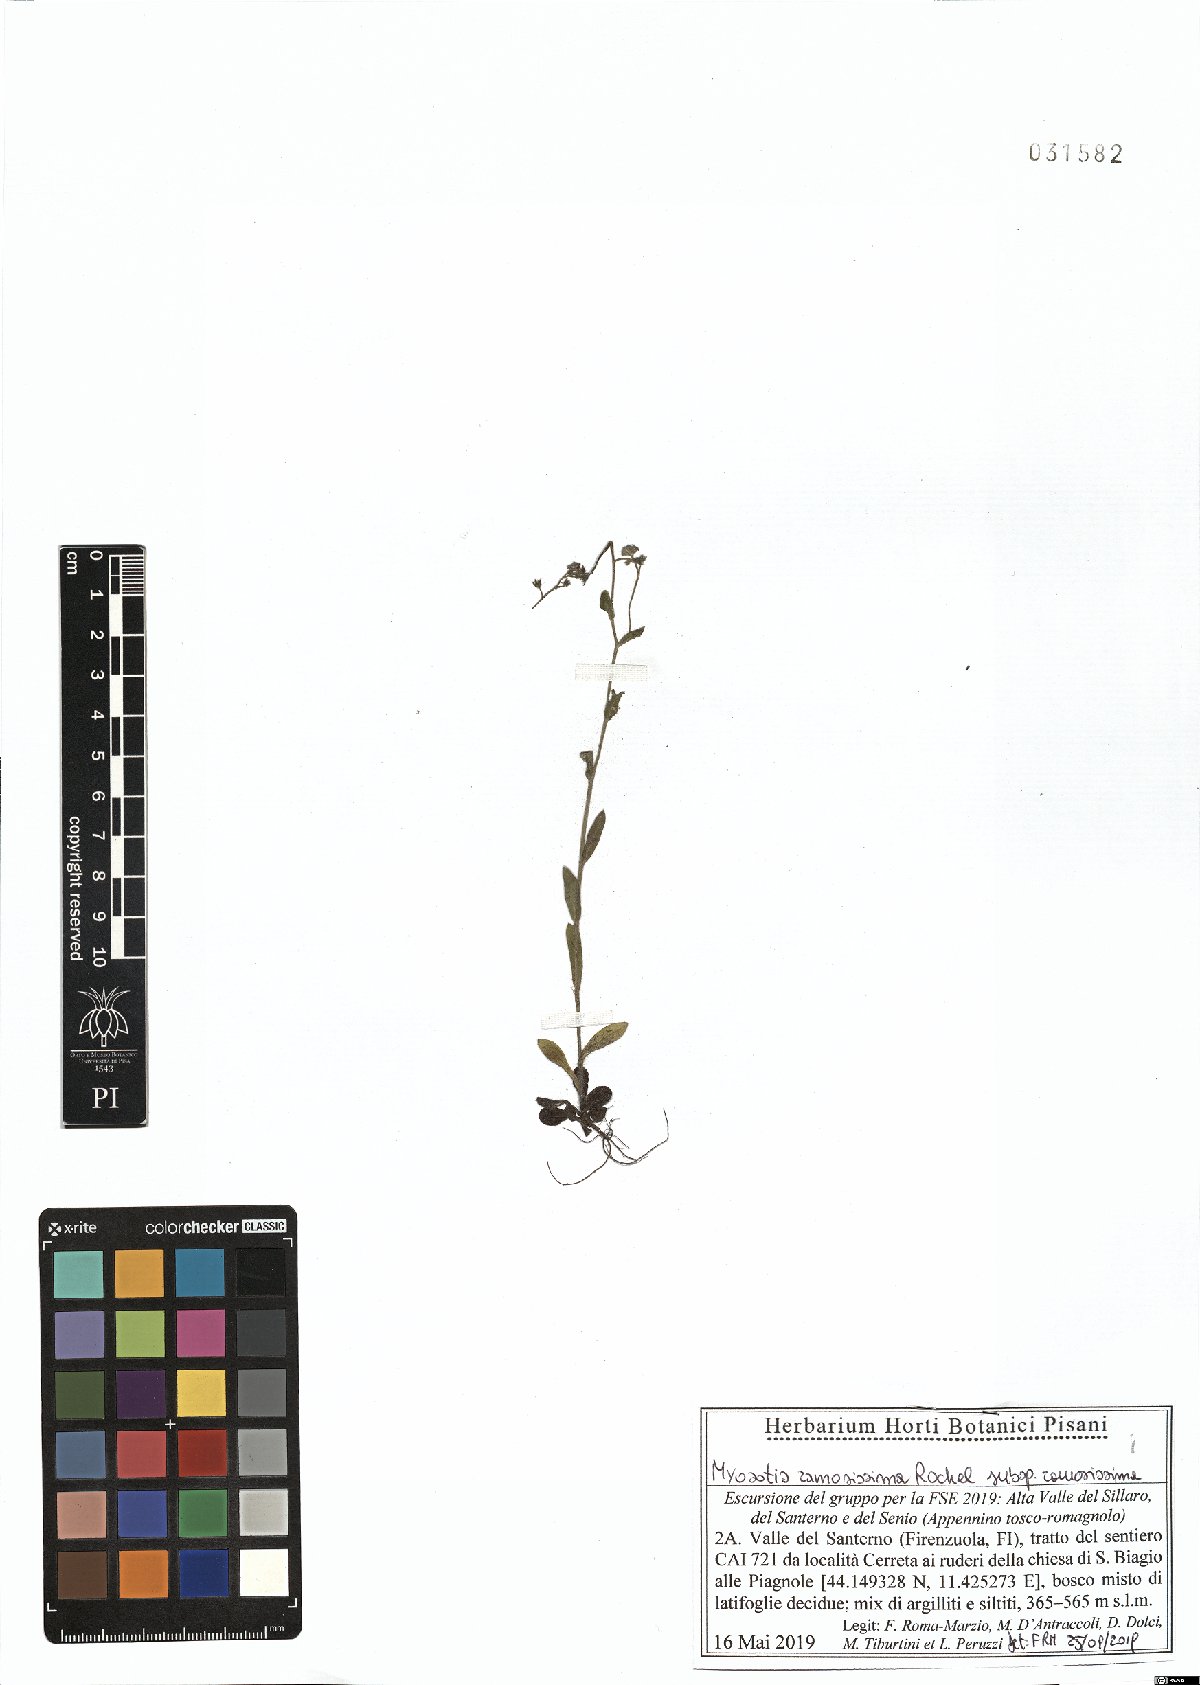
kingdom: Plantae
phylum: Tracheophyta
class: Magnoliopsida
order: Boraginales
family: Boraginaceae
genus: Myosotis
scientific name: Myosotis ramosissima
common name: Early forget-me-not
